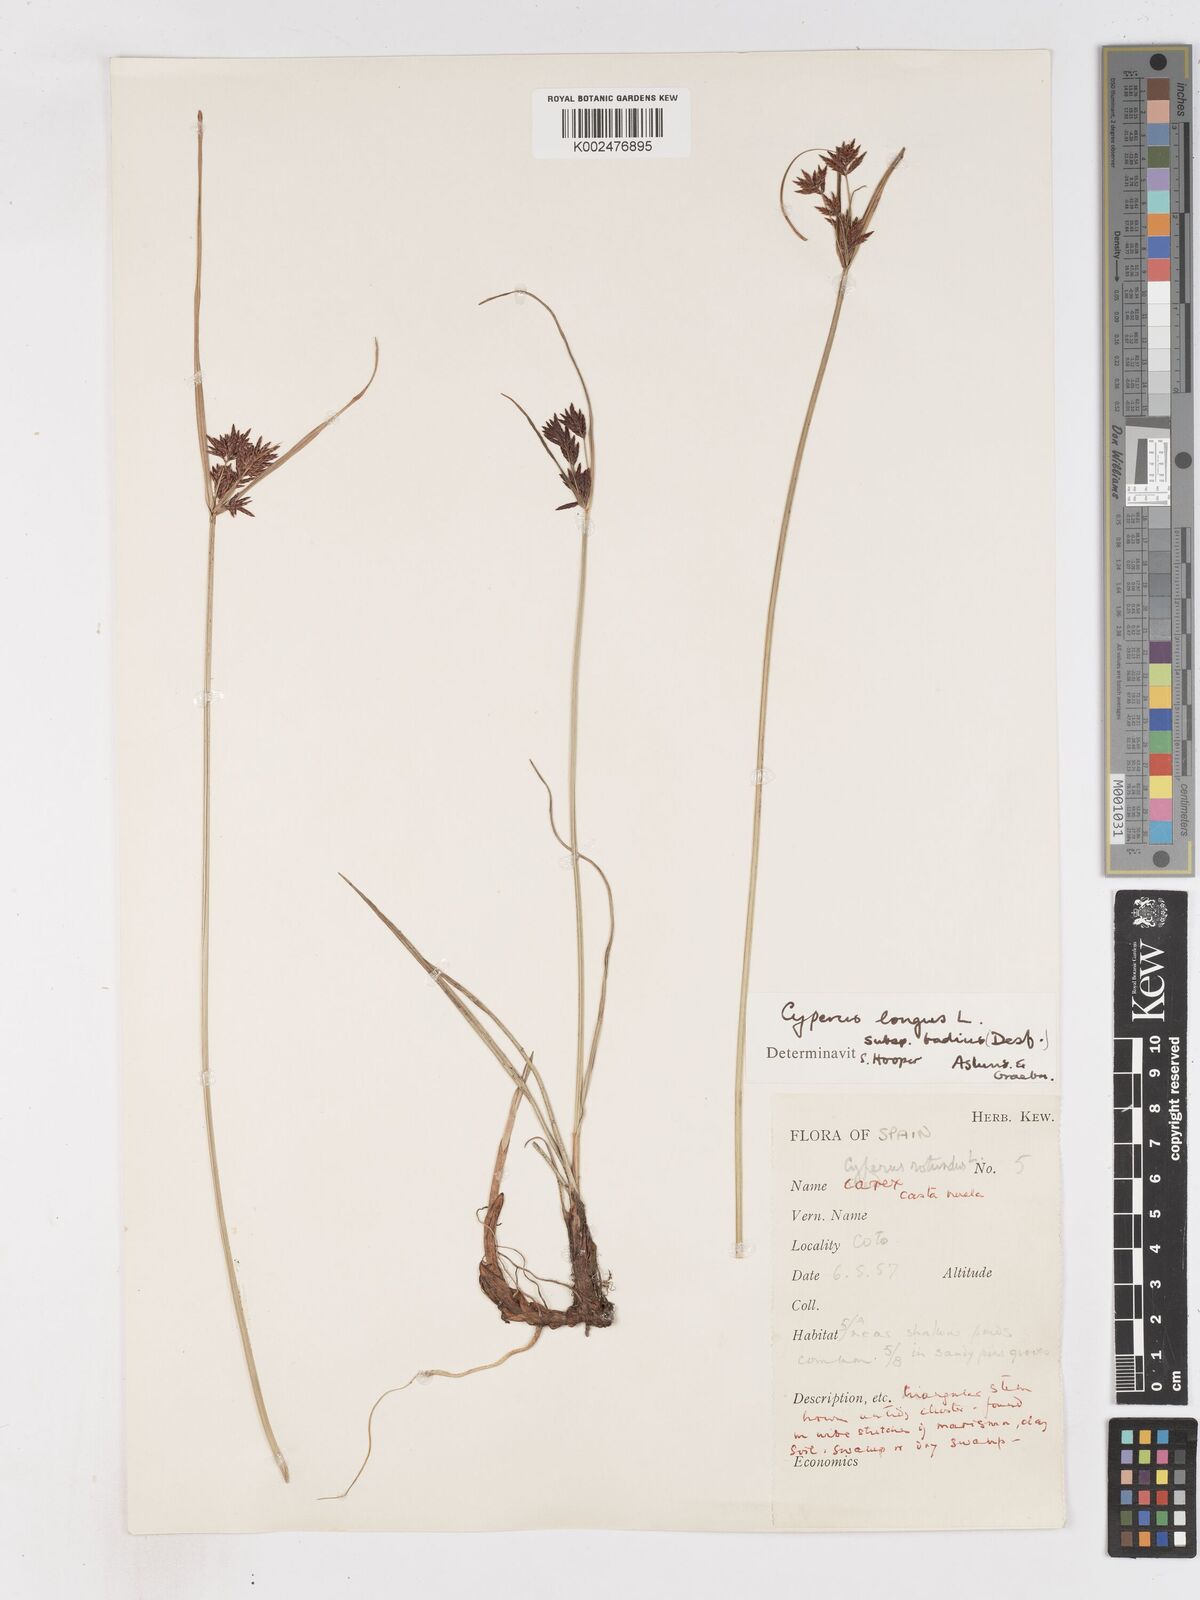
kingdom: Plantae
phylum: Tracheophyta
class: Liliopsida
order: Poales
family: Cyperaceae
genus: Cyperus
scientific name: Cyperus longus
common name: Galingale
